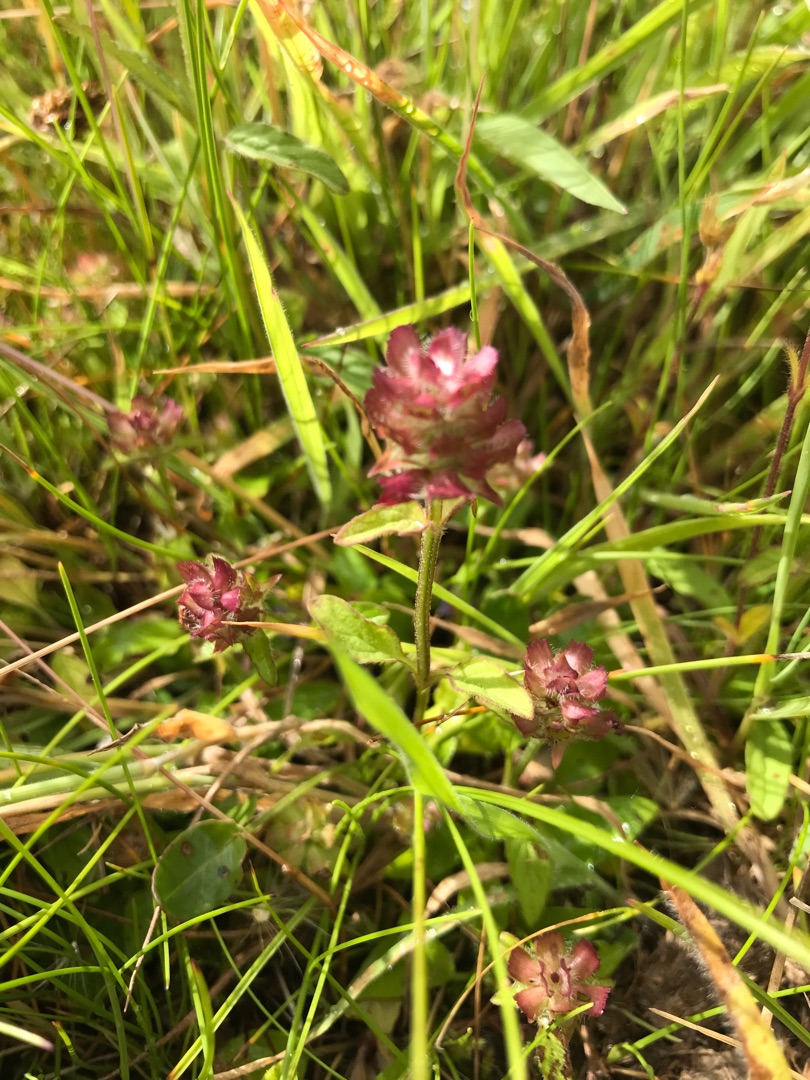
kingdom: Plantae
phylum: Tracheophyta
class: Magnoliopsida
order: Lamiales
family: Lamiaceae
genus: Prunella
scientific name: Prunella vulgaris
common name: Almindelig brunelle
